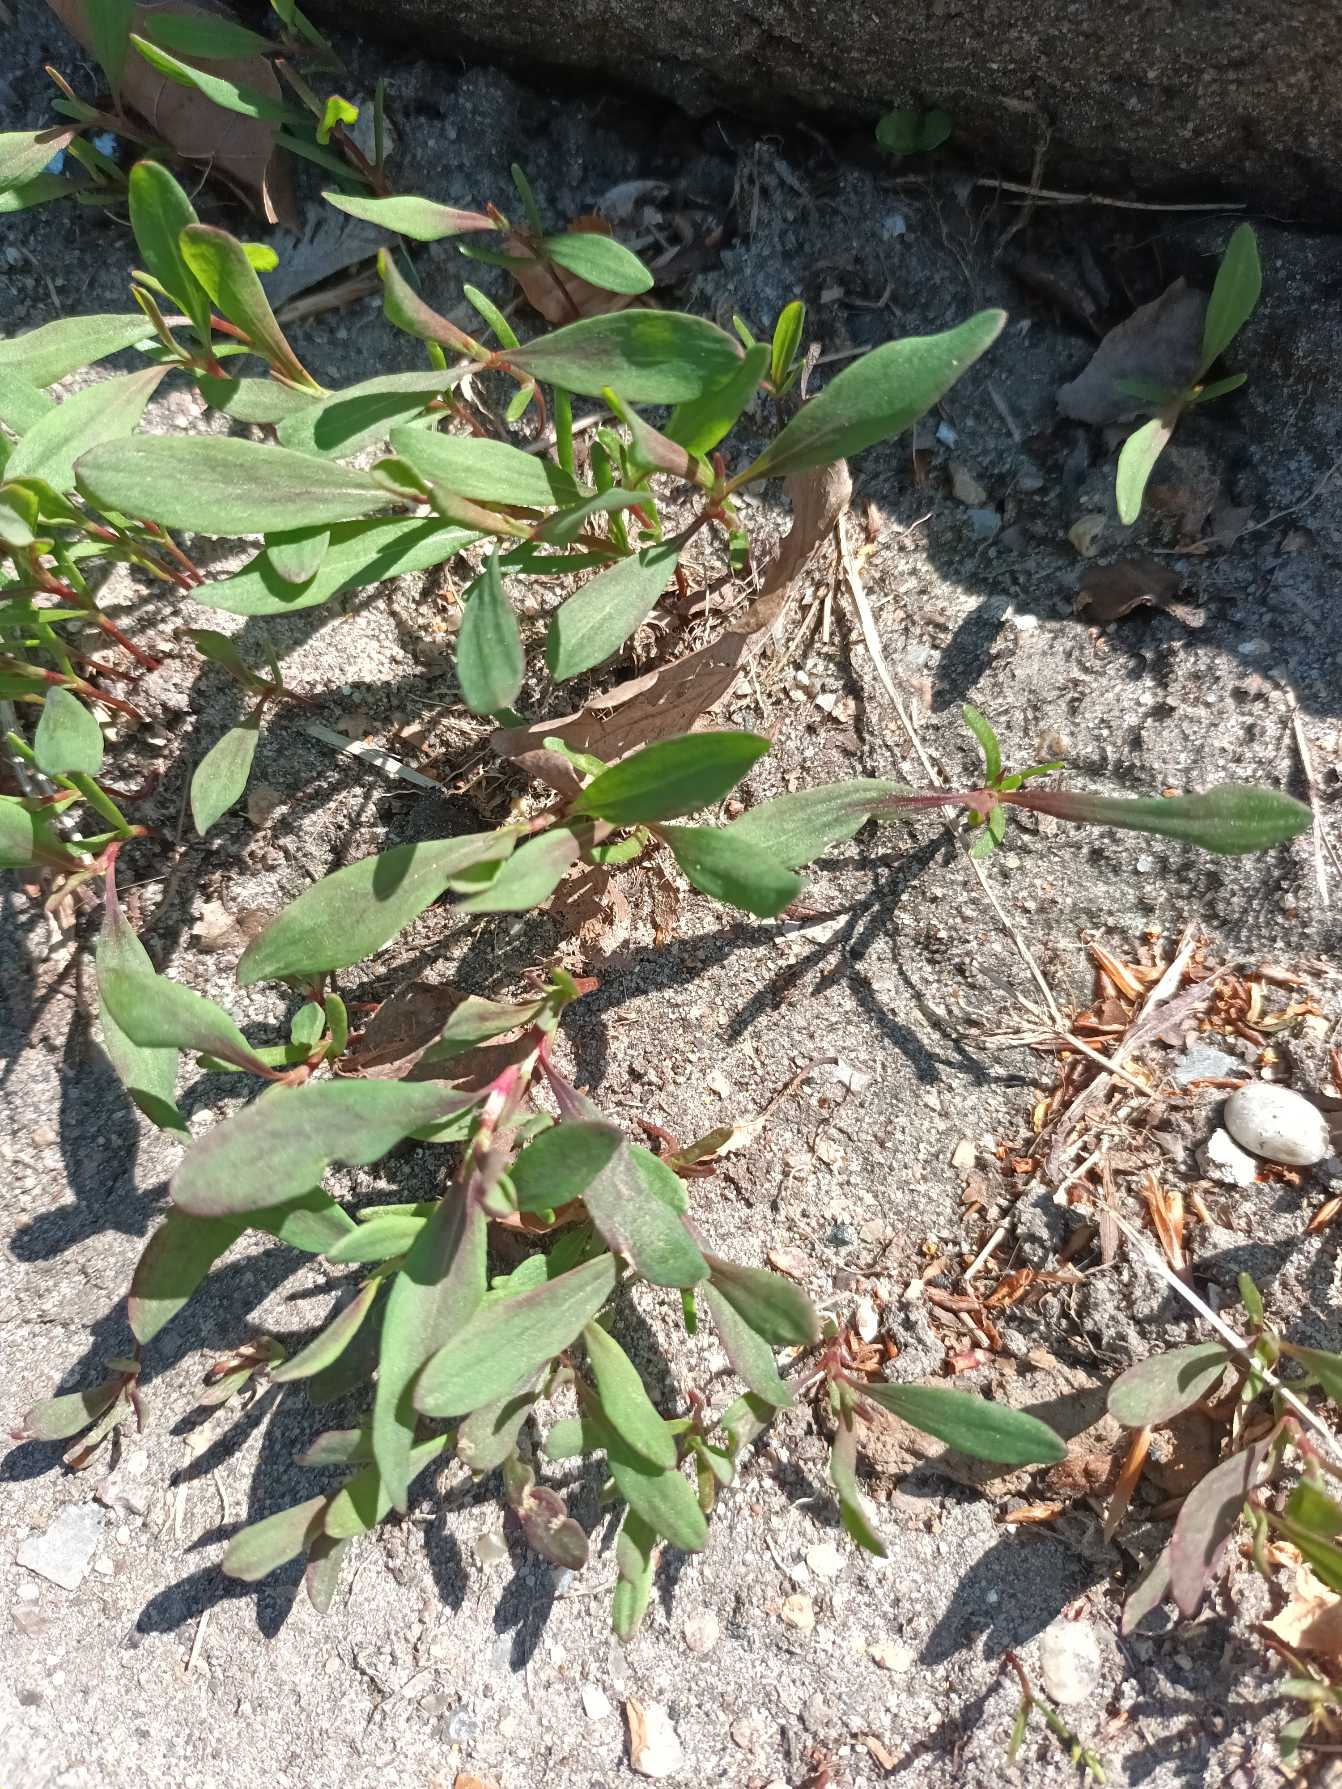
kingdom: Plantae
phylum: Tracheophyta
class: Magnoliopsida
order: Caryophyllales
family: Polygonaceae
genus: Polygonum
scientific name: Polygonum aviculare
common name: Vej-pileurt (underart)
